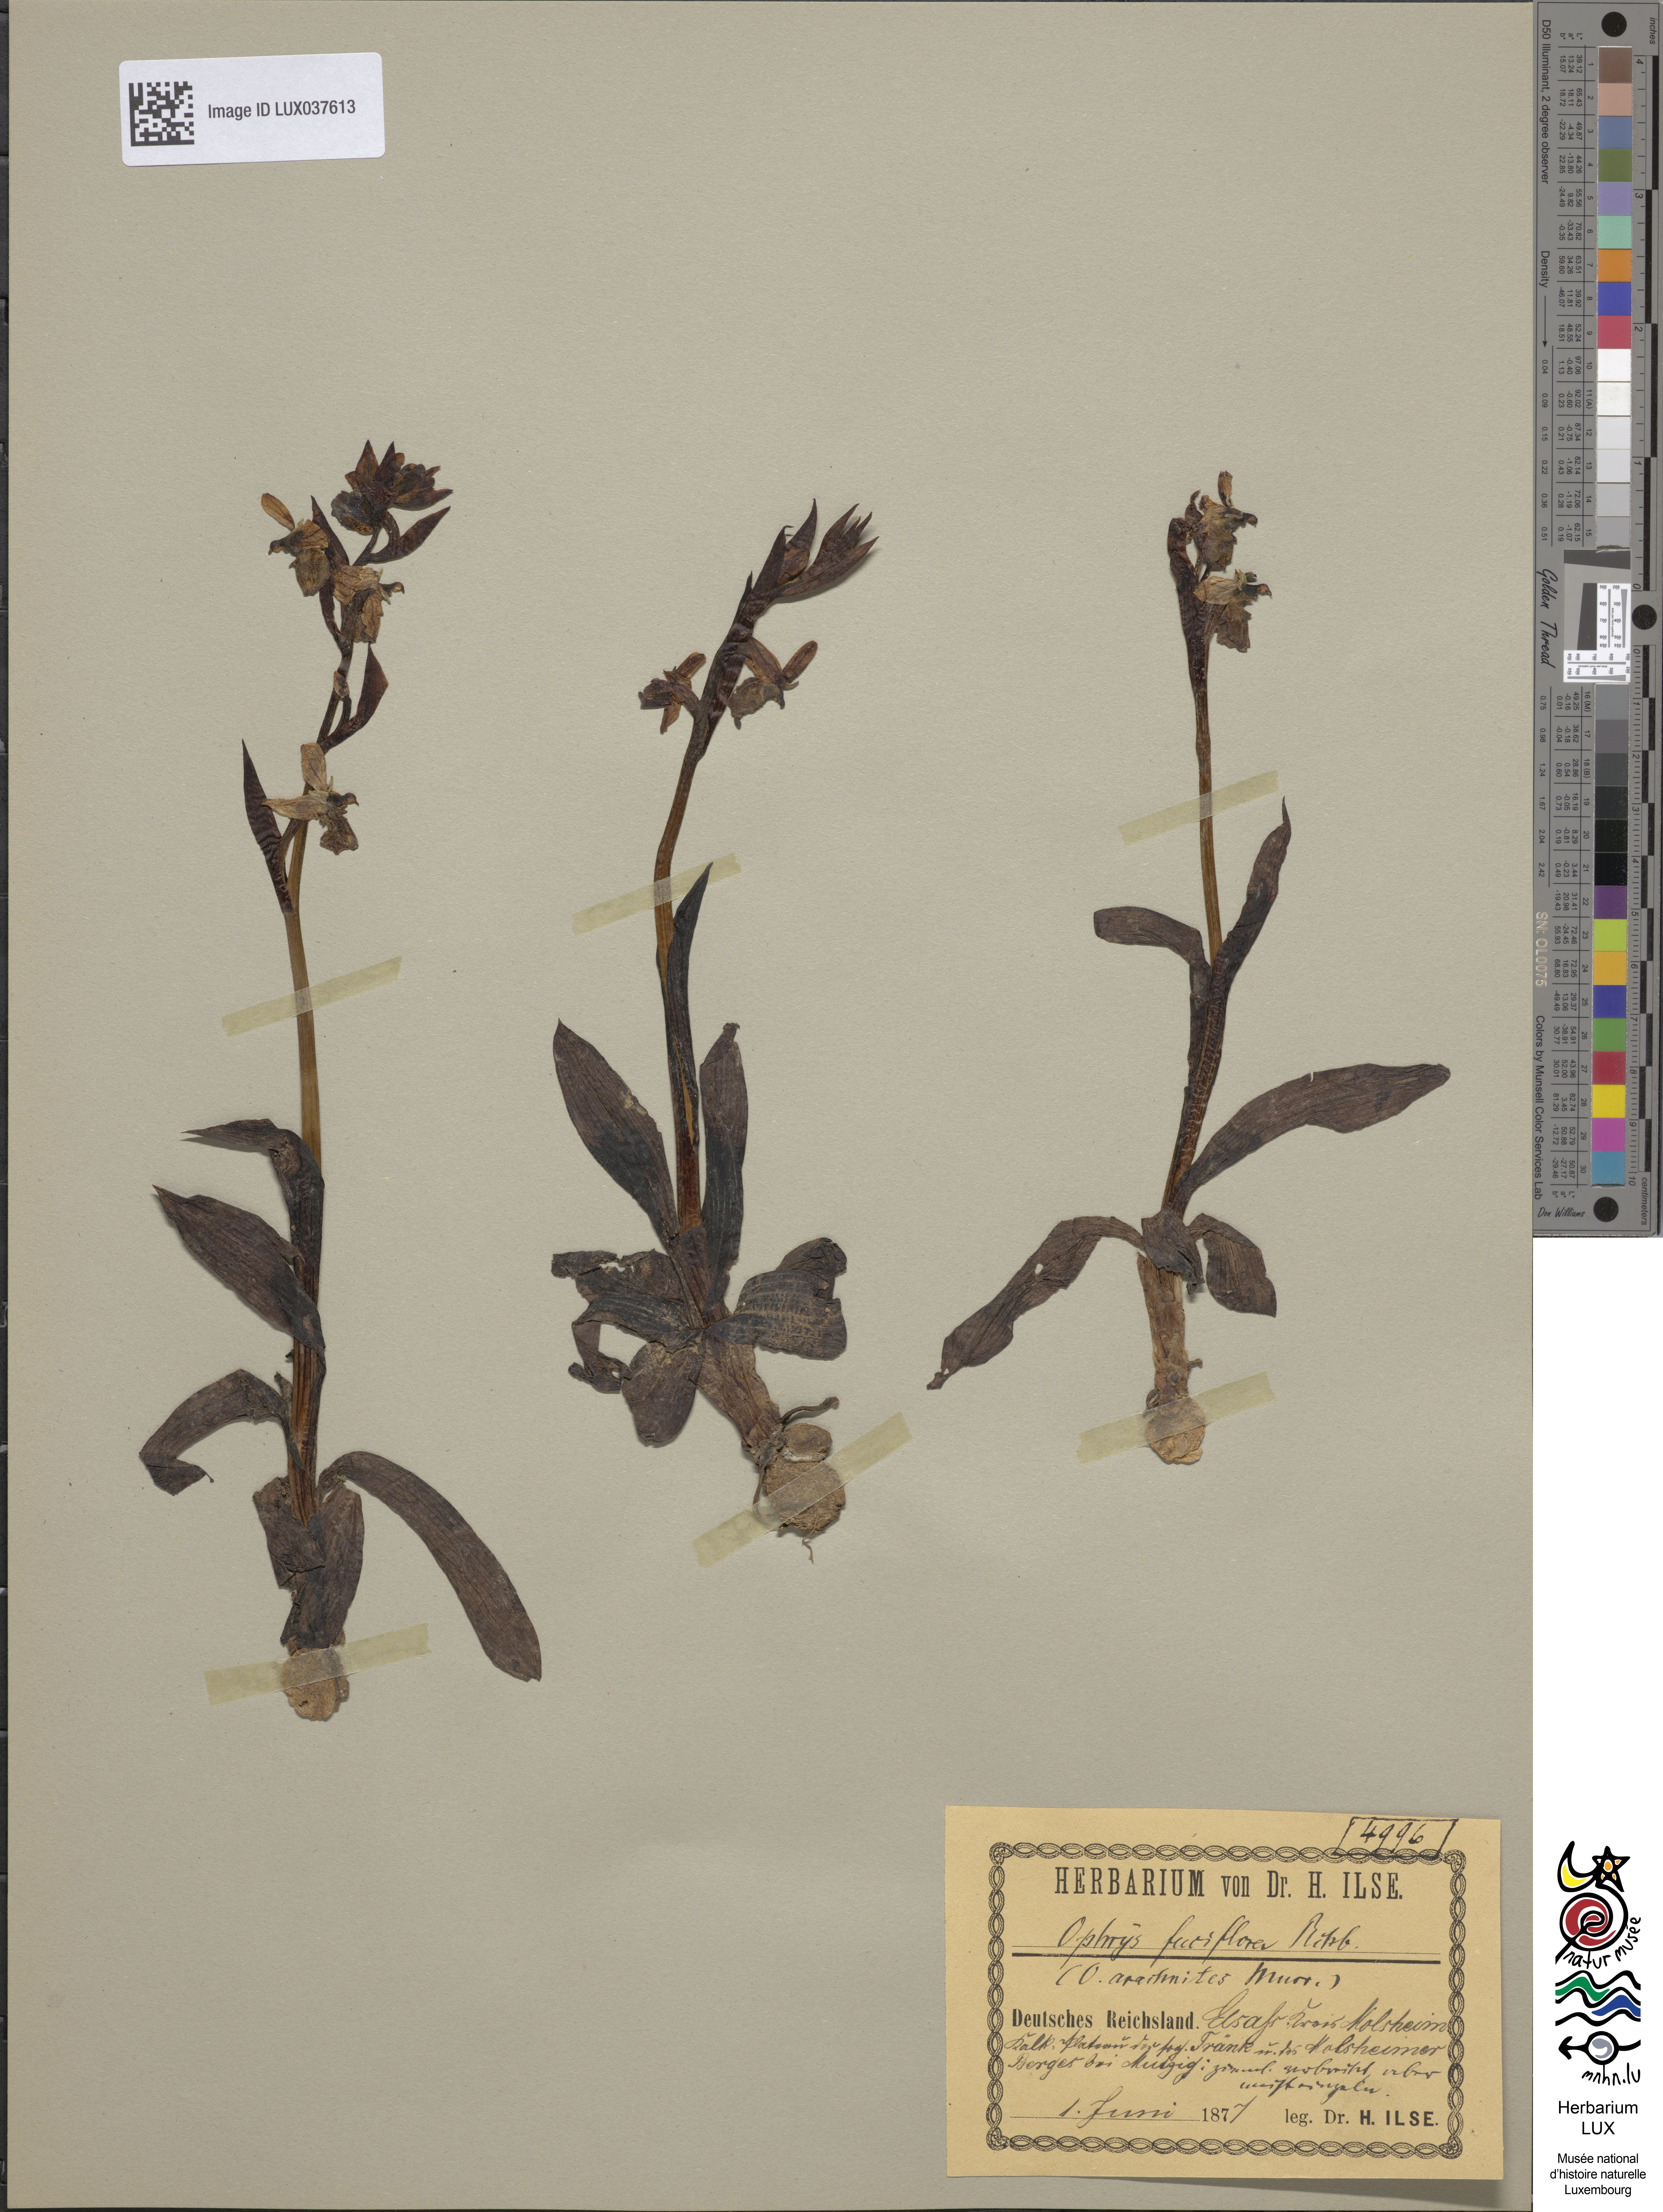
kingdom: Plantae
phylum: Tracheophyta
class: Liliopsida
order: Asparagales
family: Orchidaceae
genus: Ophrys
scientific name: Ophrys holosericea
